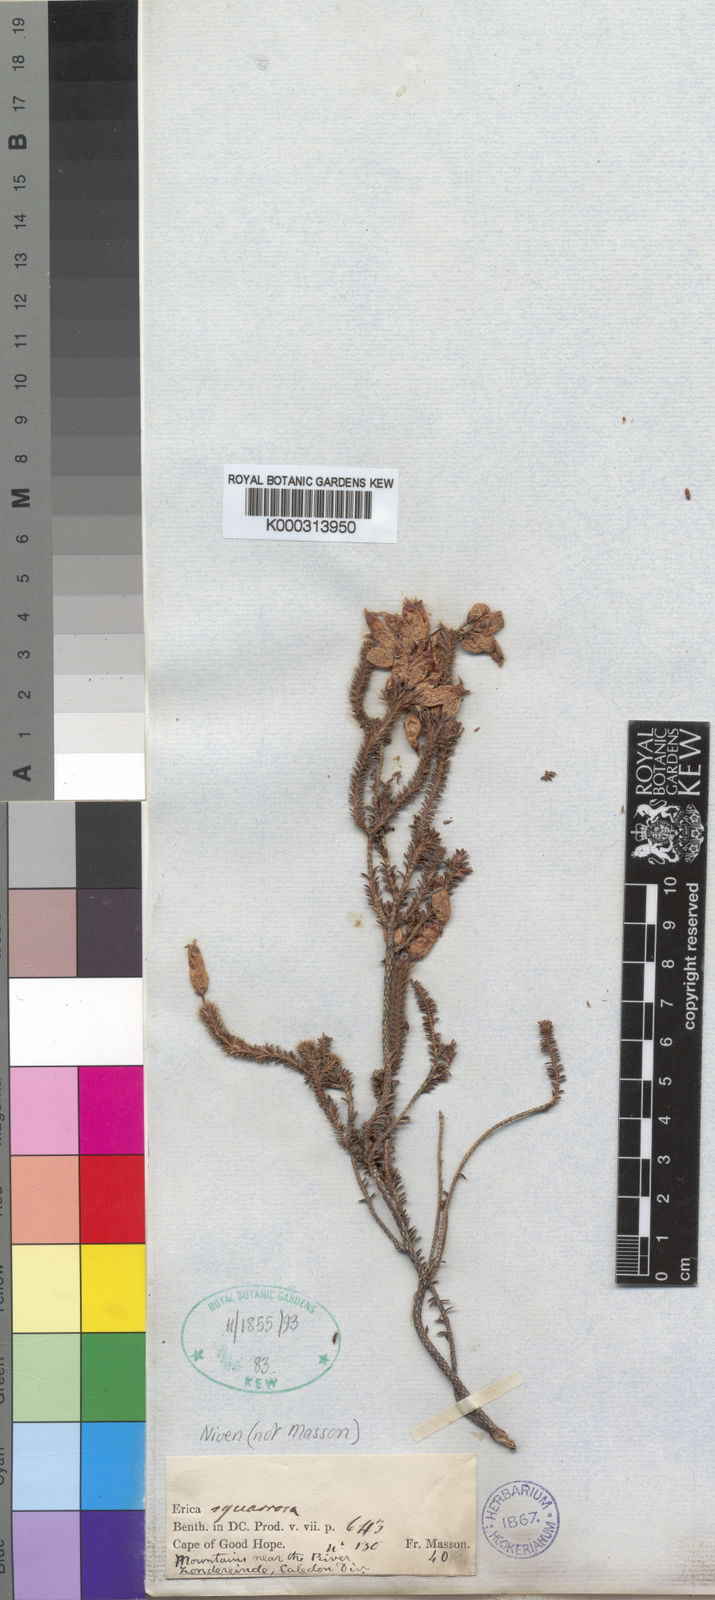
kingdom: Plantae
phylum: Tracheophyta
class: Magnoliopsida
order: Ericales
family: Ericaceae
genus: Erica
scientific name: Erica squarrosa
